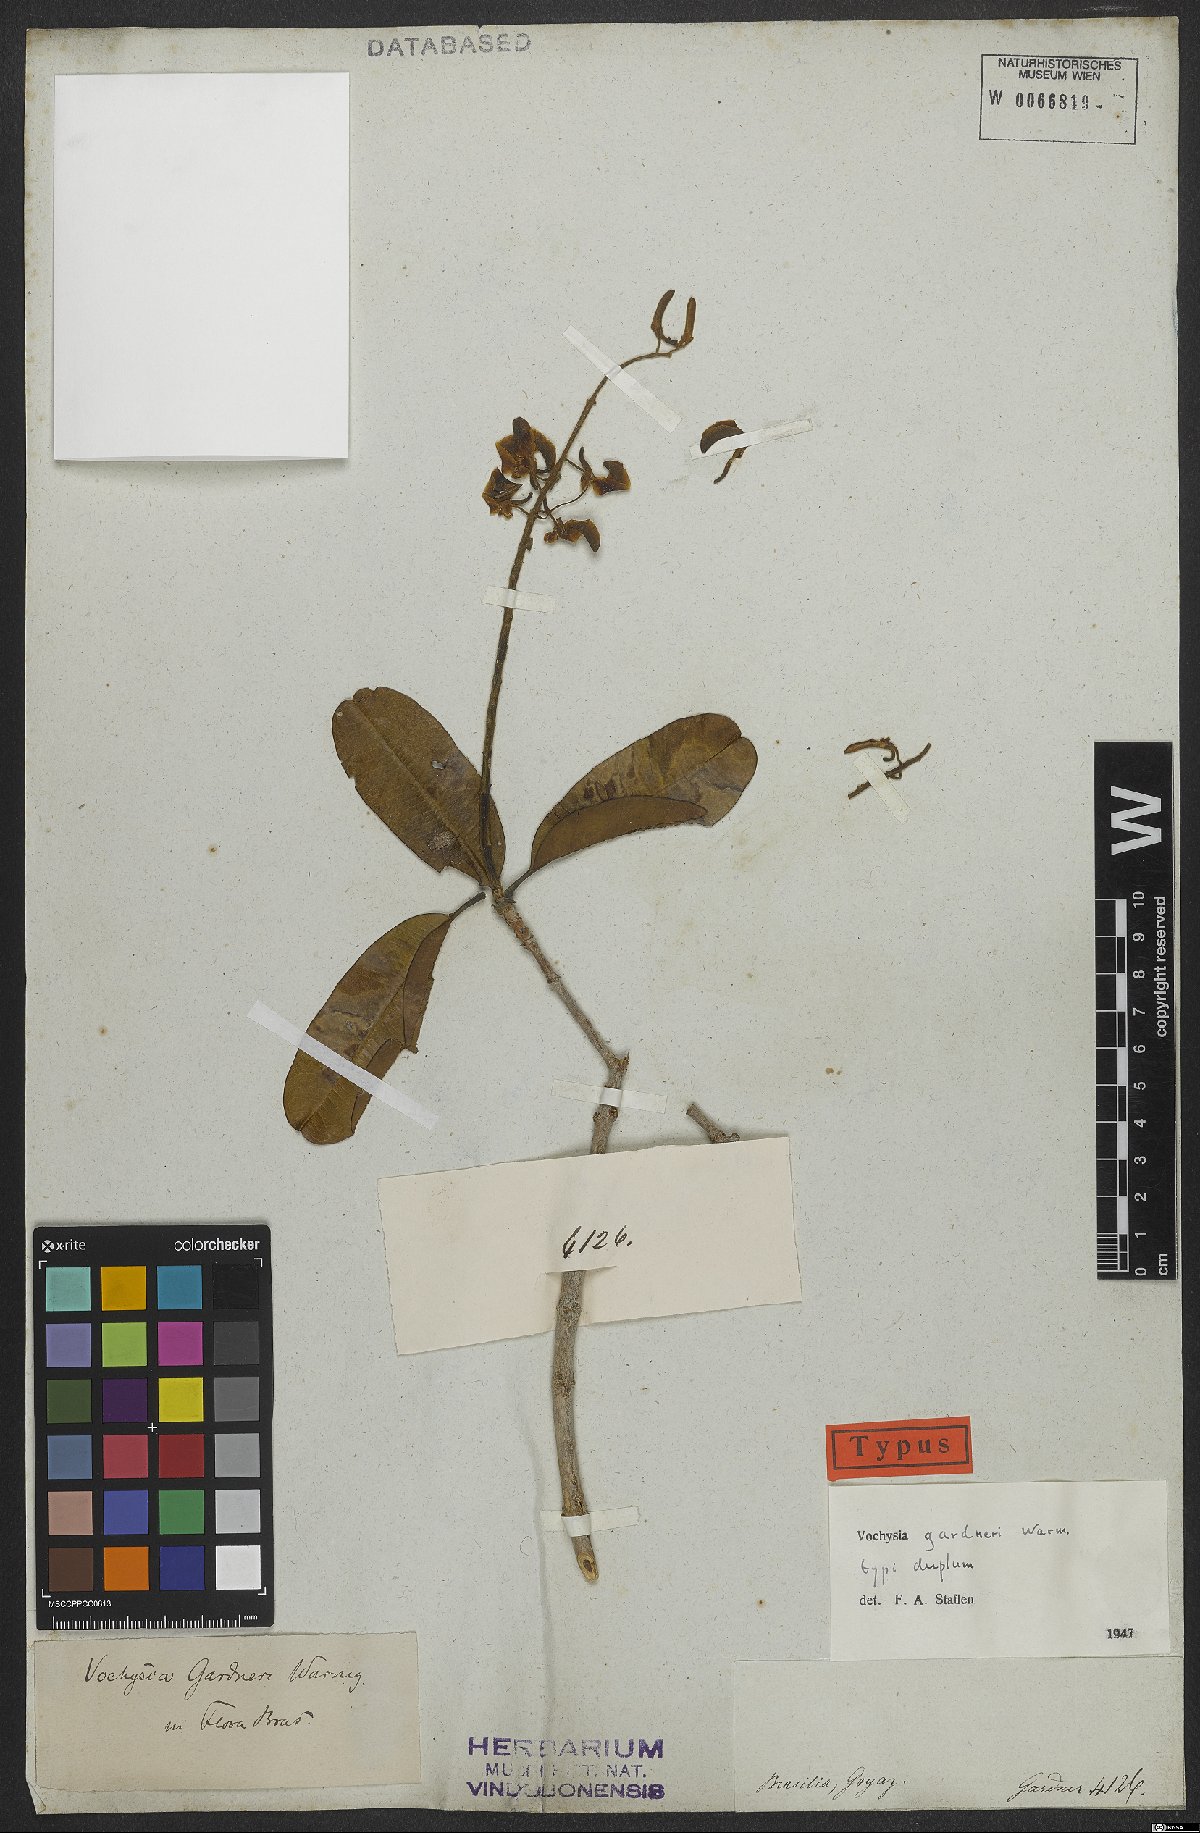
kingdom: Plantae
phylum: Tracheophyta
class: Magnoliopsida
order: Myrtales
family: Vochysiaceae
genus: Vochysia
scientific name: Vochysia gardneri
